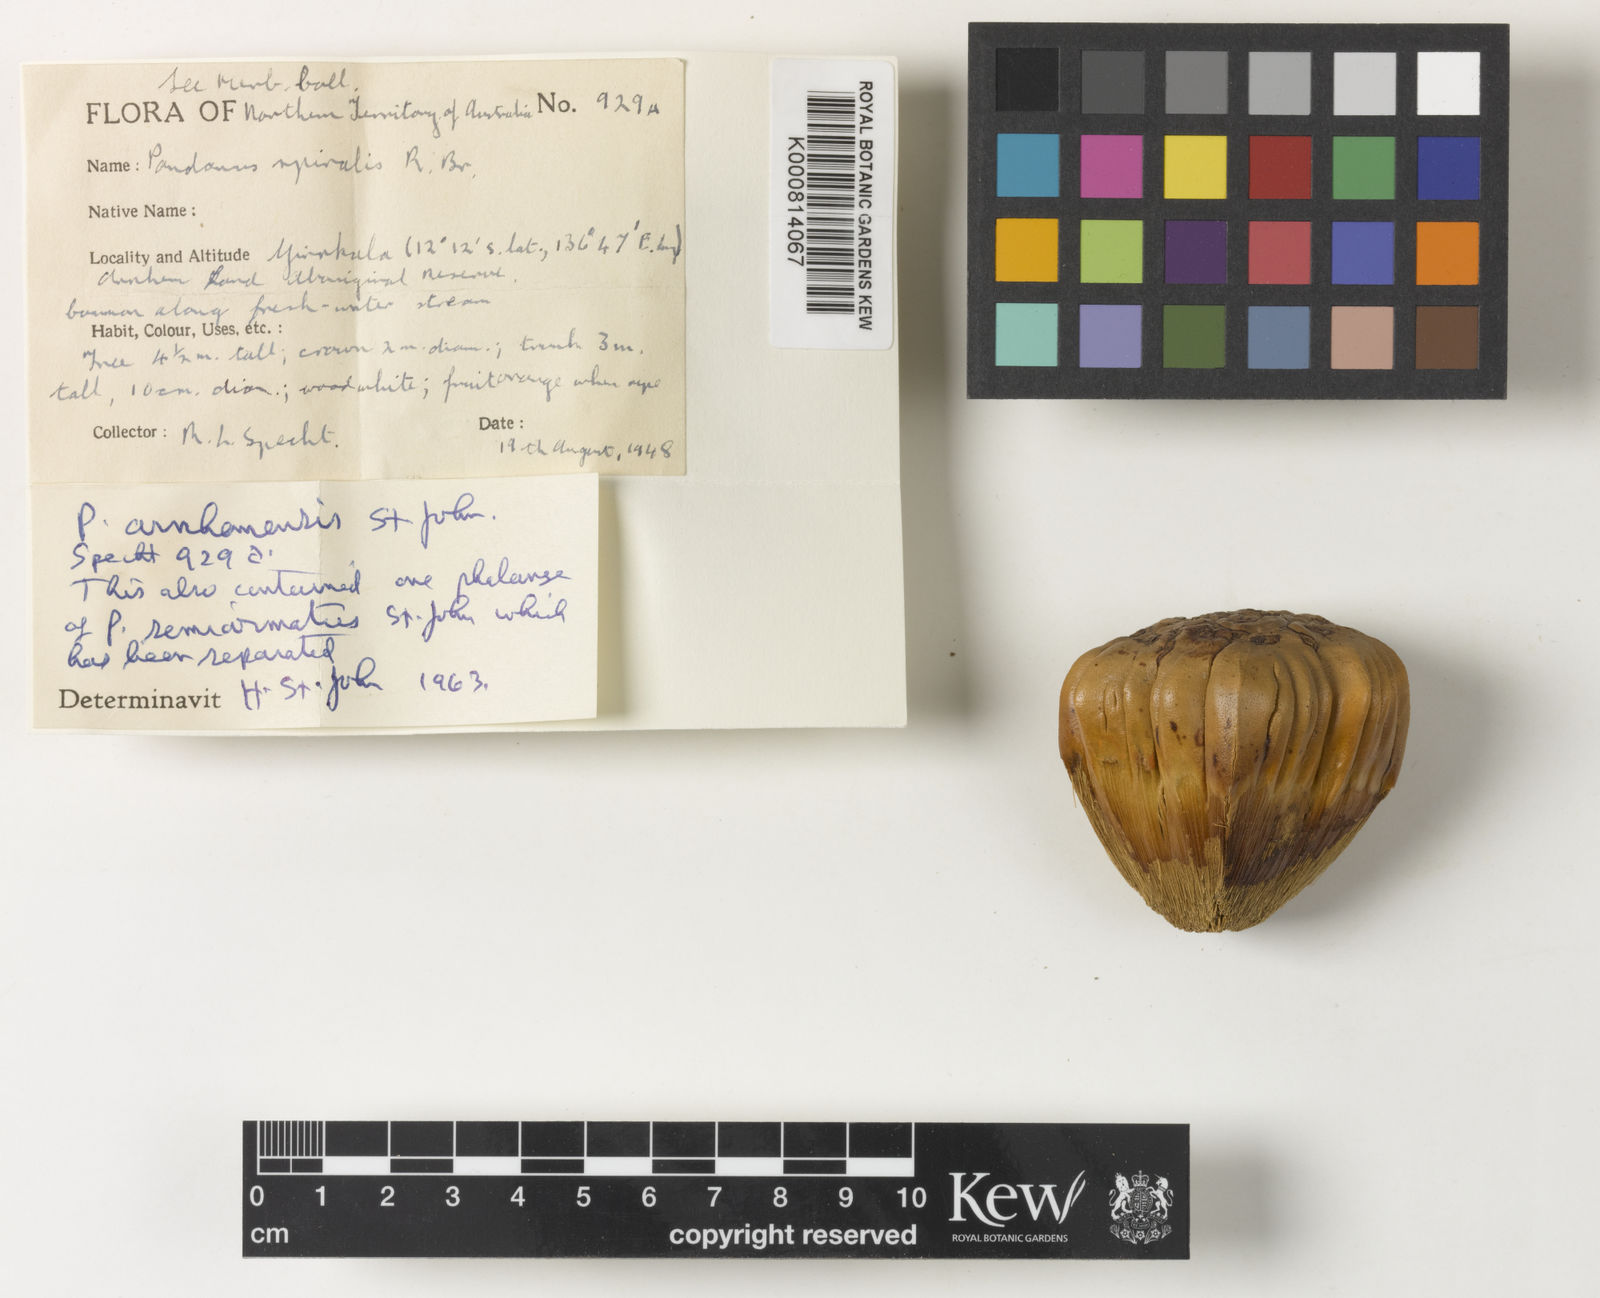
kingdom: Plantae
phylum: Tracheophyta
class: Liliopsida
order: Pandanales
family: Pandanaceae
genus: Pandanus
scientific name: Pandanus spiralis
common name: Screw-pine
